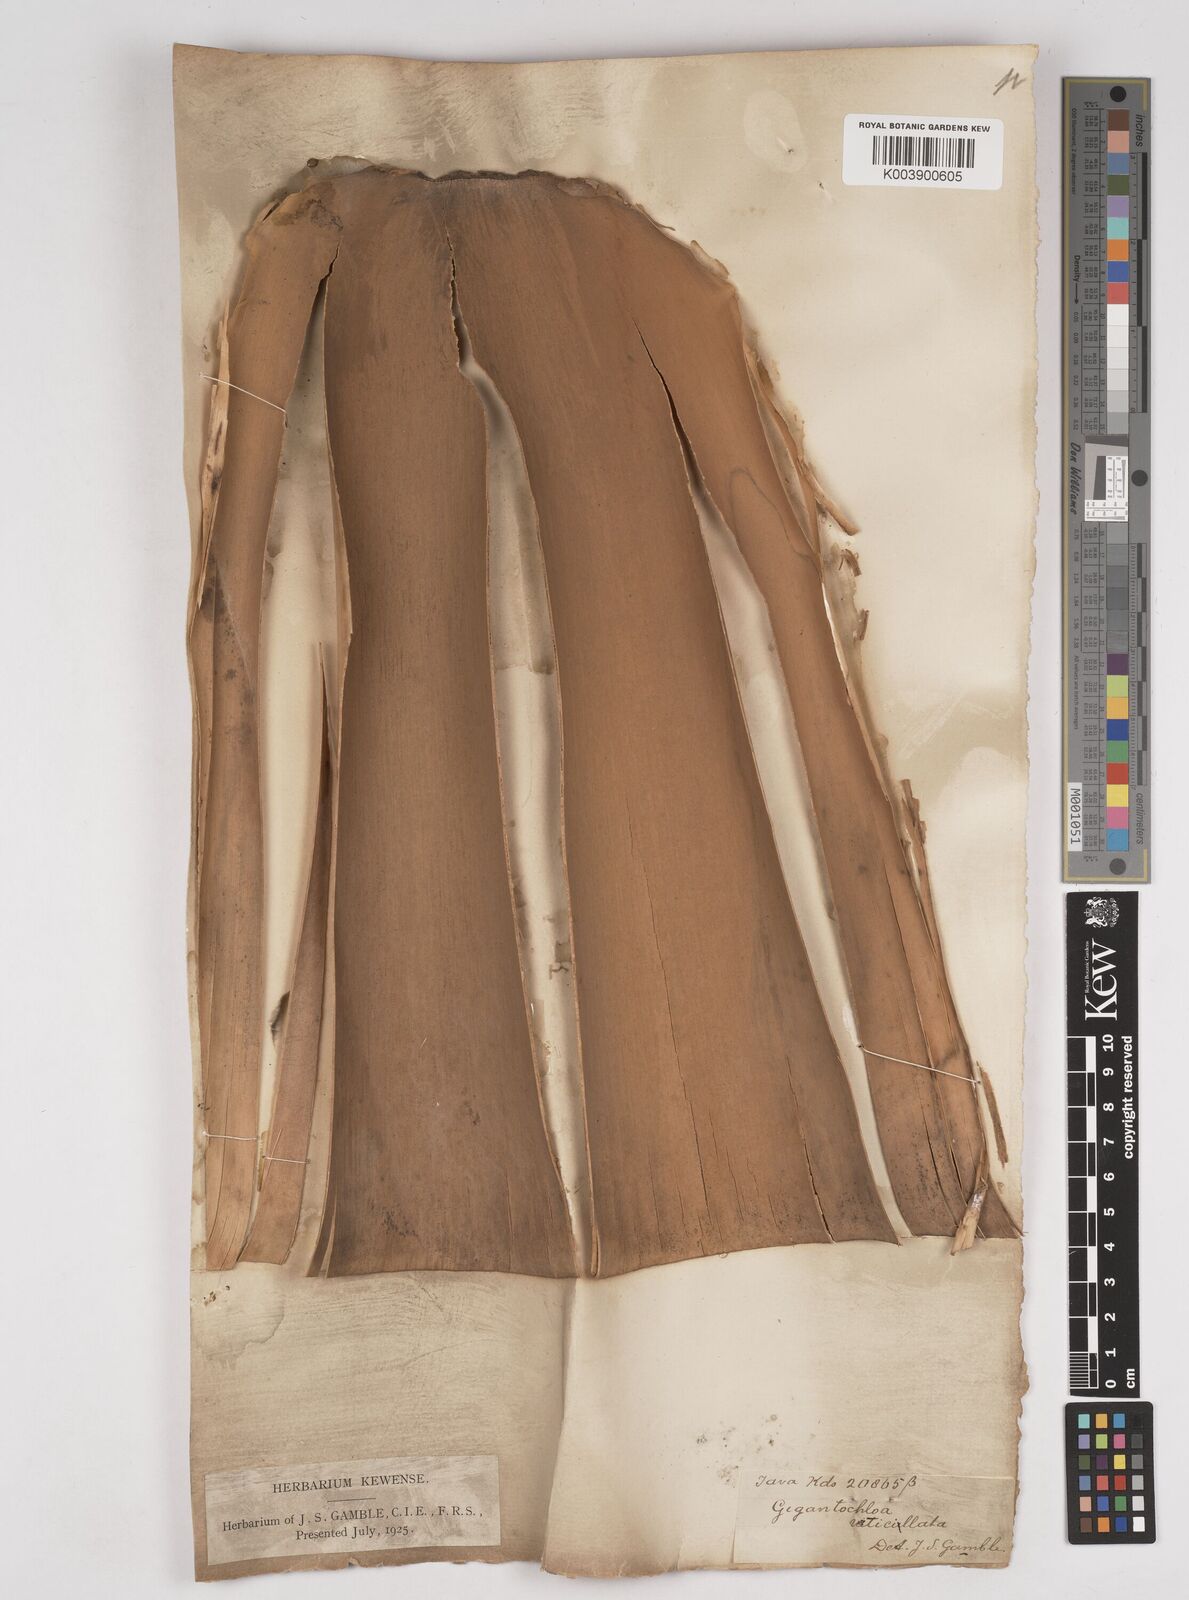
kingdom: Plantae
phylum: Tracheophyta
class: Liliopsida
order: Poales
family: Poaceae
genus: Gigantochloa
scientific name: Gigantochloa
